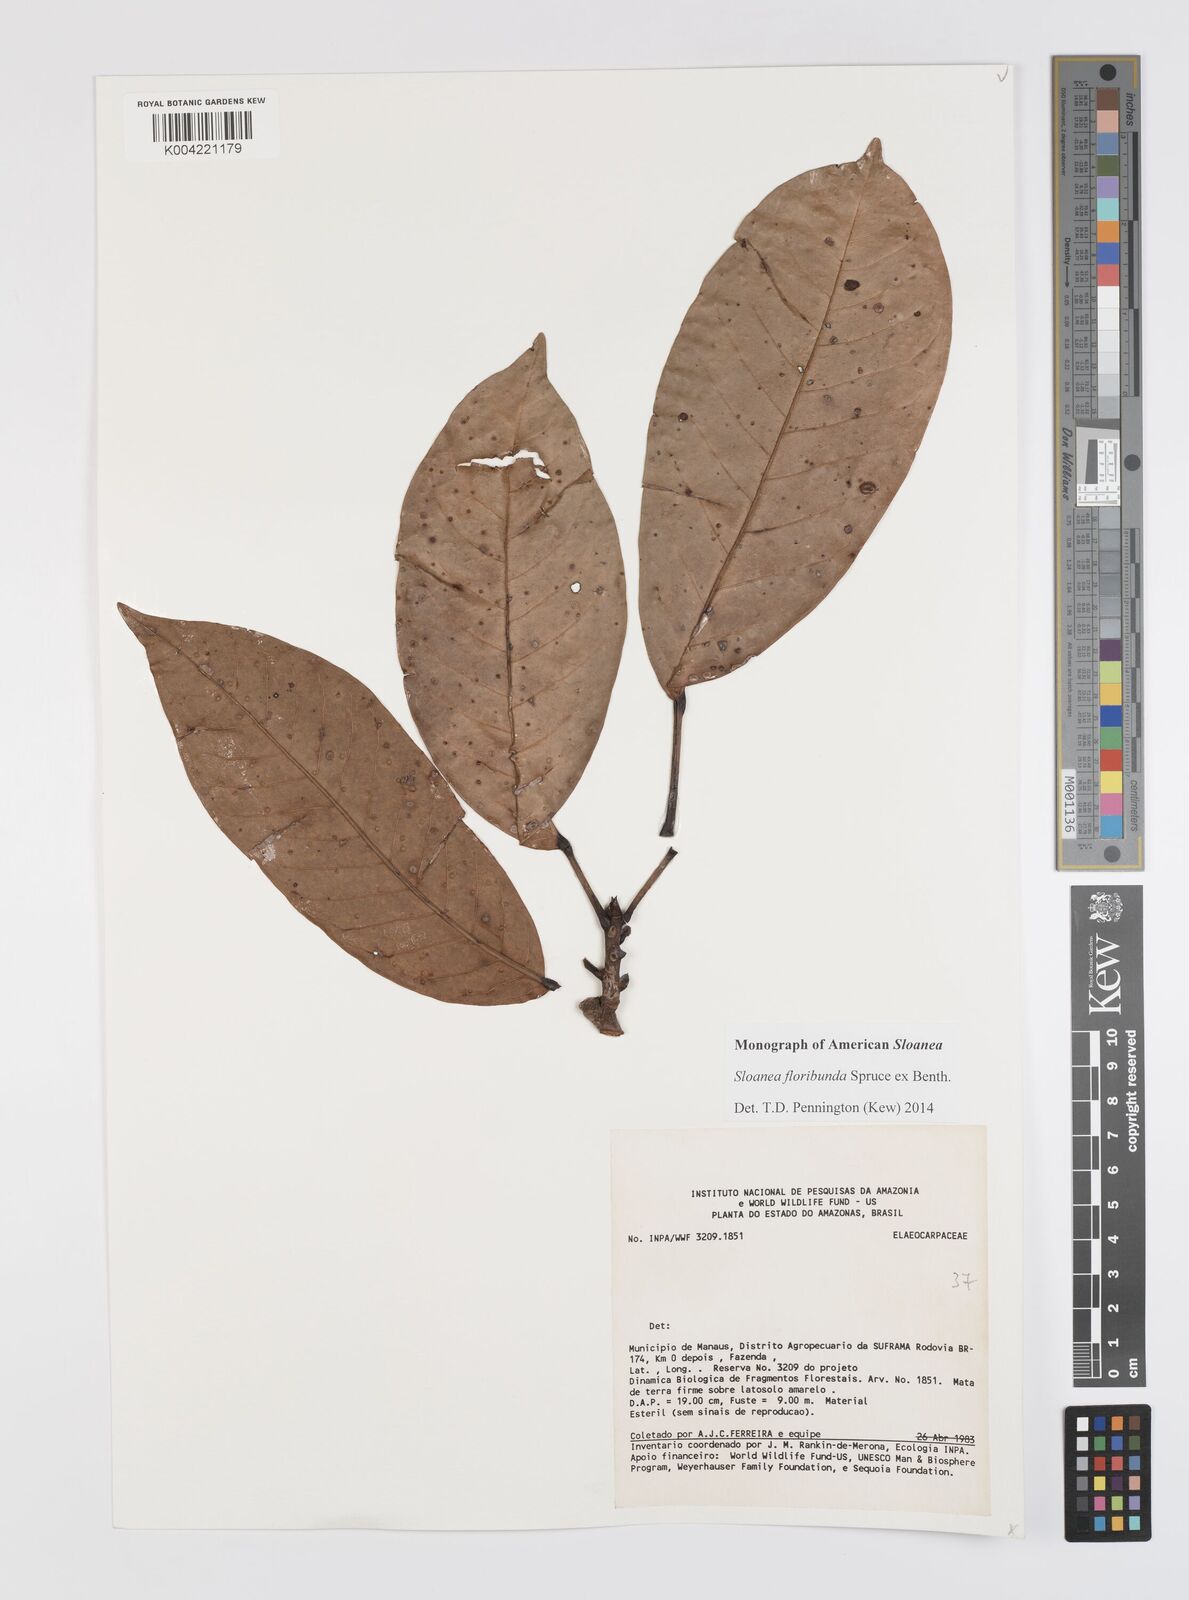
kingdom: Plantae
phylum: Tracheophyta
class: Magnoliopsida
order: Oxalidales
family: Elaeocarpaceae
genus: Sloanea
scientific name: Sloanea floribunda
